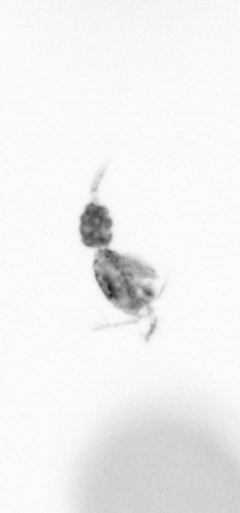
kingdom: Animalia
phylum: Arthropoda
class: Copepoda
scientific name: Copepoda
